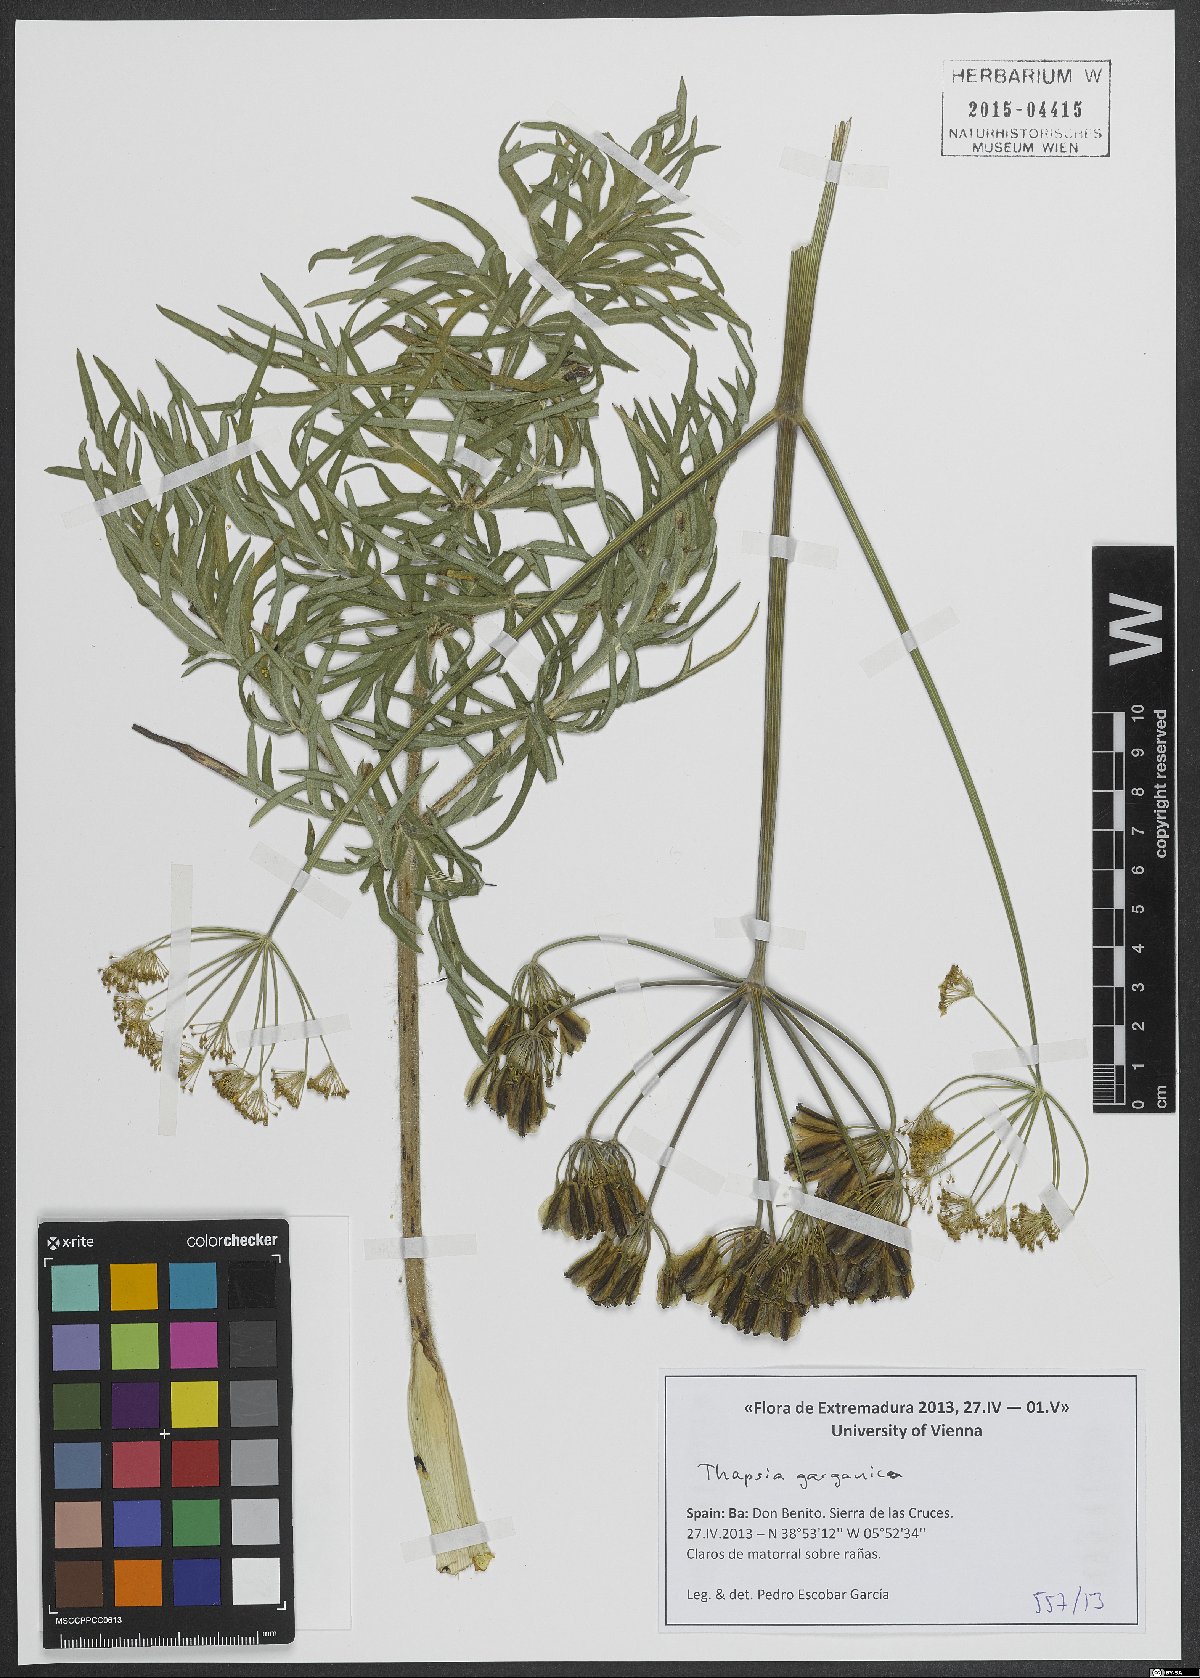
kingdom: Plantae
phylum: Tracheophyta
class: Magnoliopsida
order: Apiales
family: Apiaceae
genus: Thapsia
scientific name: Thapsia garganica
